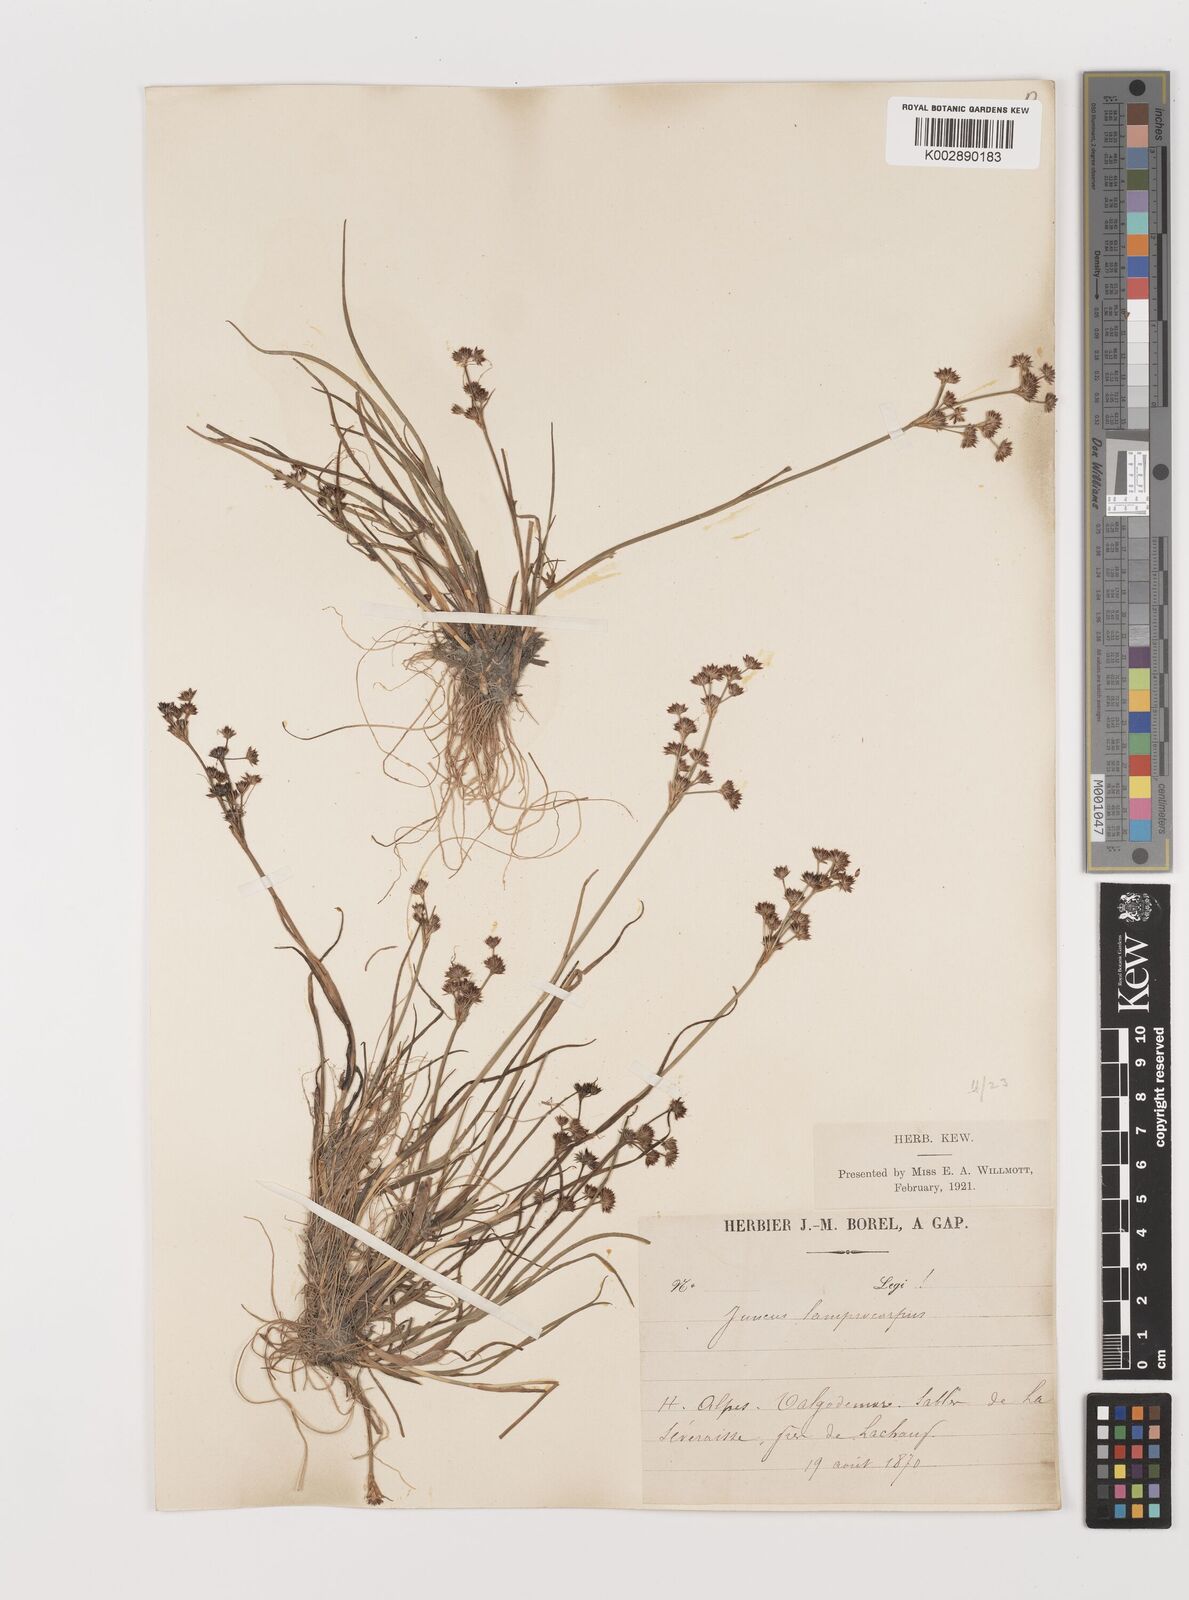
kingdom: Plantae
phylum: Tracheophyta
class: Liliopsida
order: Poales
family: Juncaceae
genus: Juncus
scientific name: Juncus articulatus
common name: Jointed rush
